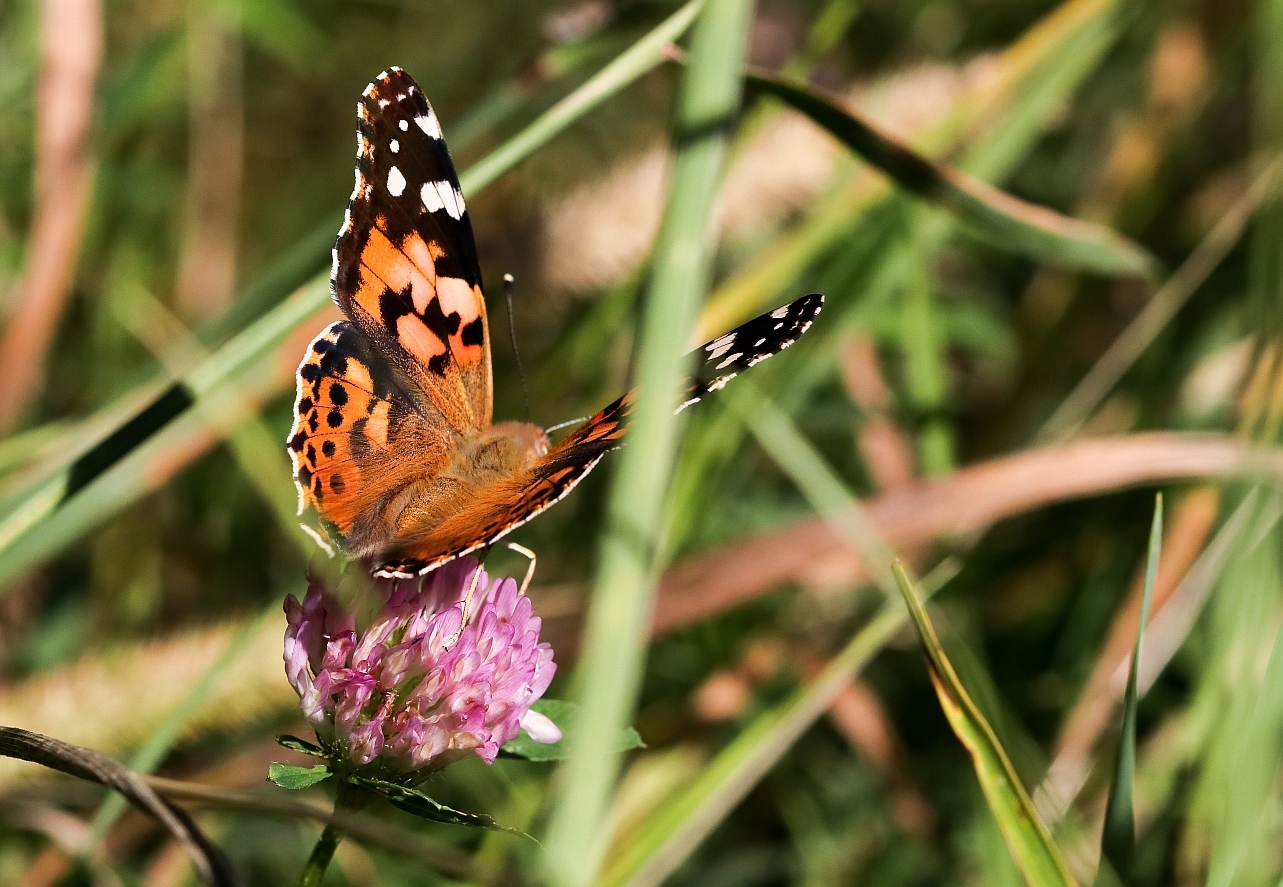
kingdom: Animalia
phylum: Arthropoda
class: Insecta
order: Lepidoptera
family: Nymphalidae
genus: Vanessa
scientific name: Vanessa cardui
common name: Painted lady
